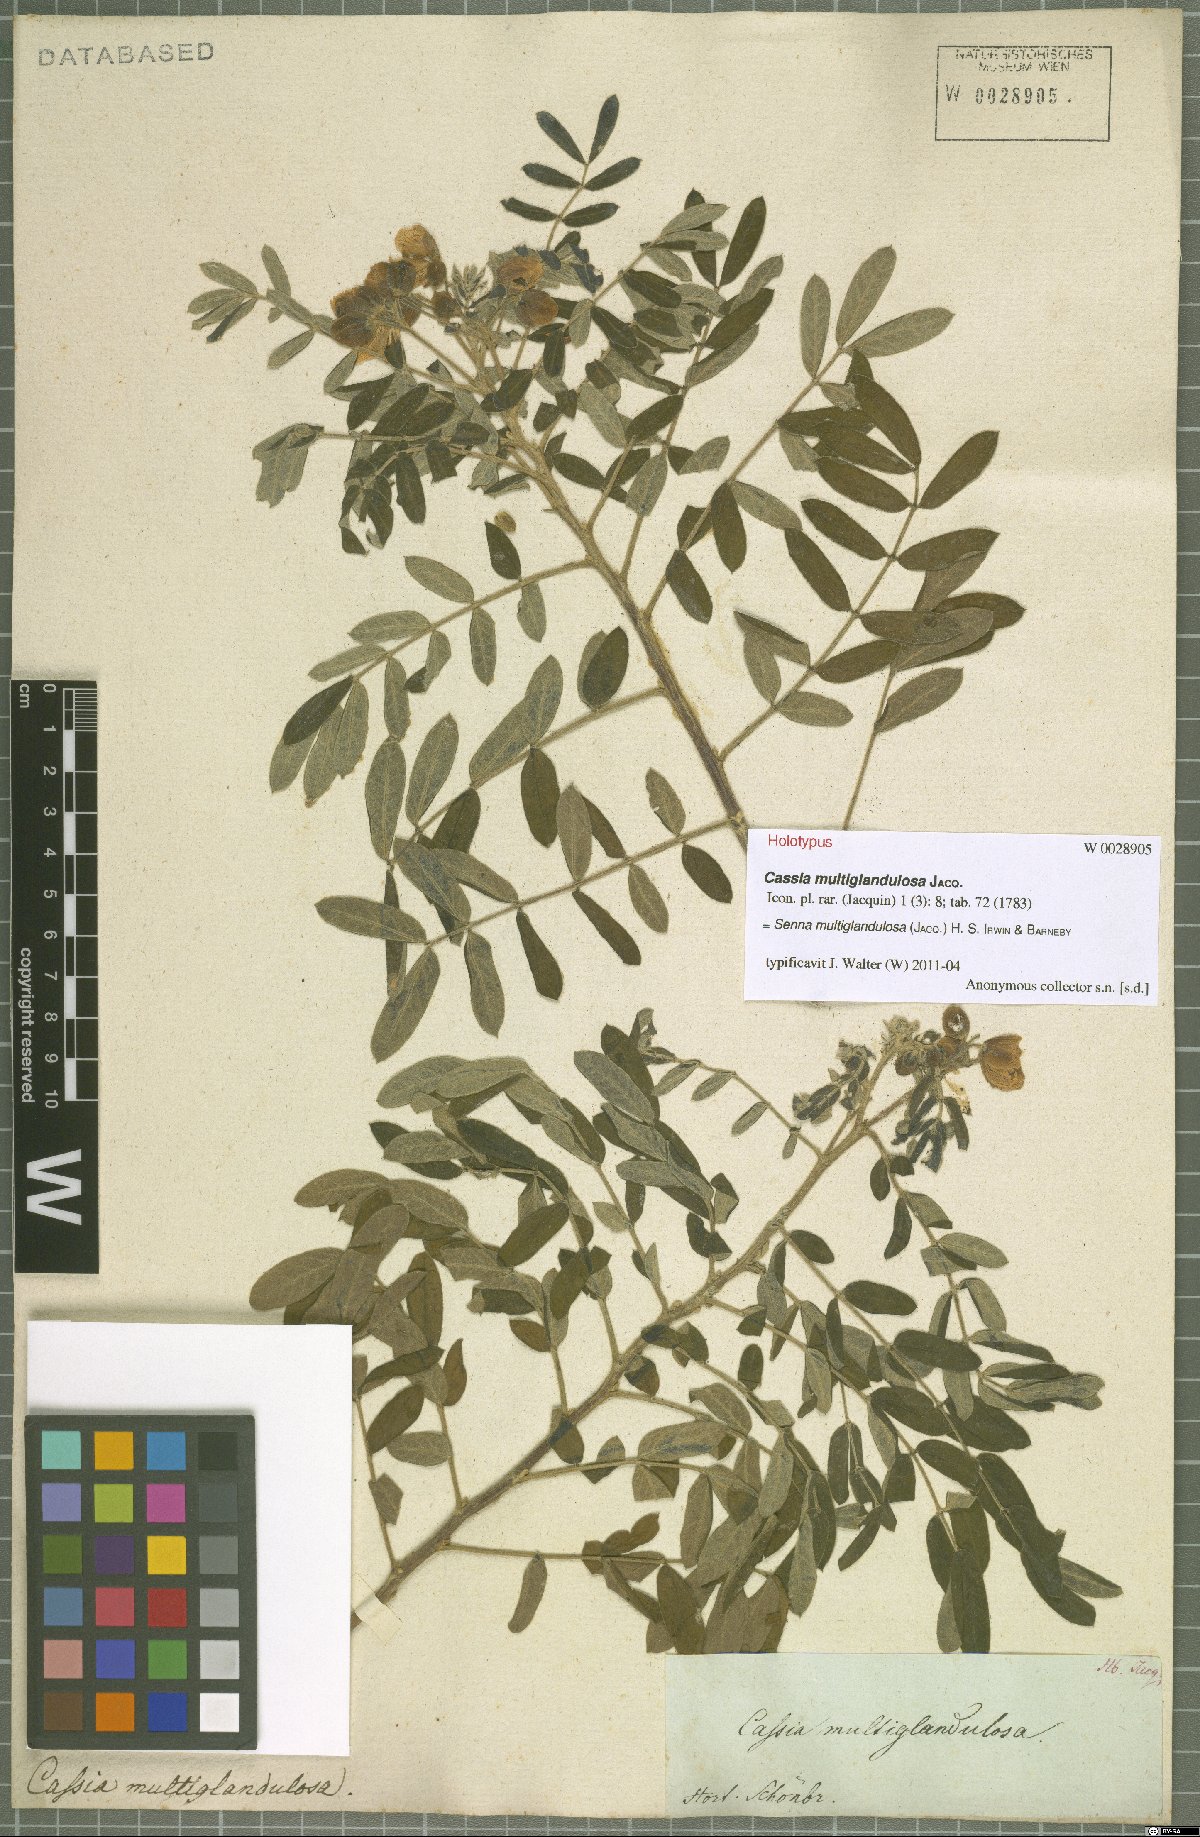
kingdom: Plantae
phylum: Tracheophyta
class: Magnoliopsida
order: Fabales
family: Fabaceae
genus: Senna
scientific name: Senna multiglandulosa
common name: Glandular senna
